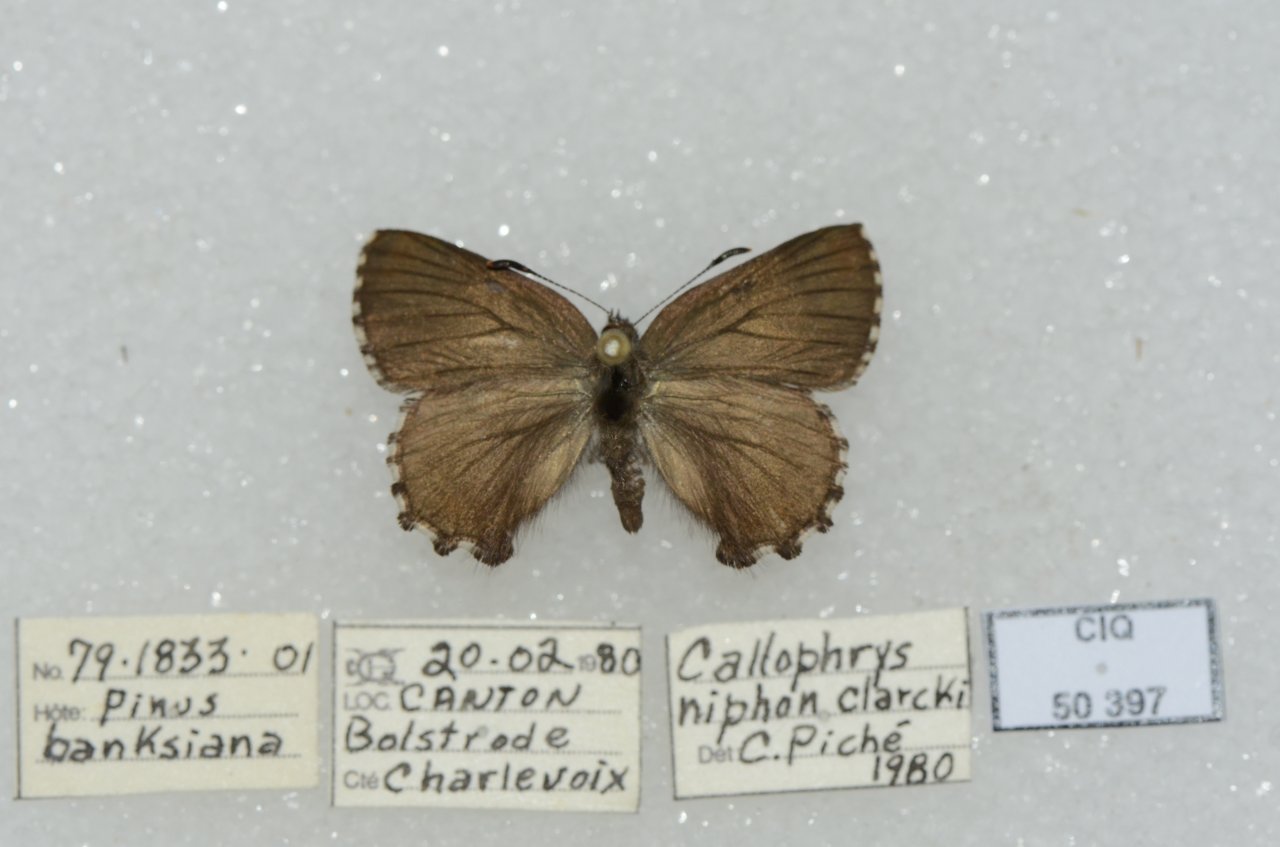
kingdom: Animalia
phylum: Arthropoda
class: Insecta
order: Lepidoptera
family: Lycaenidae
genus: Incisalia
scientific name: Incisalia niphon
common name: Eastern Pine Elfin
